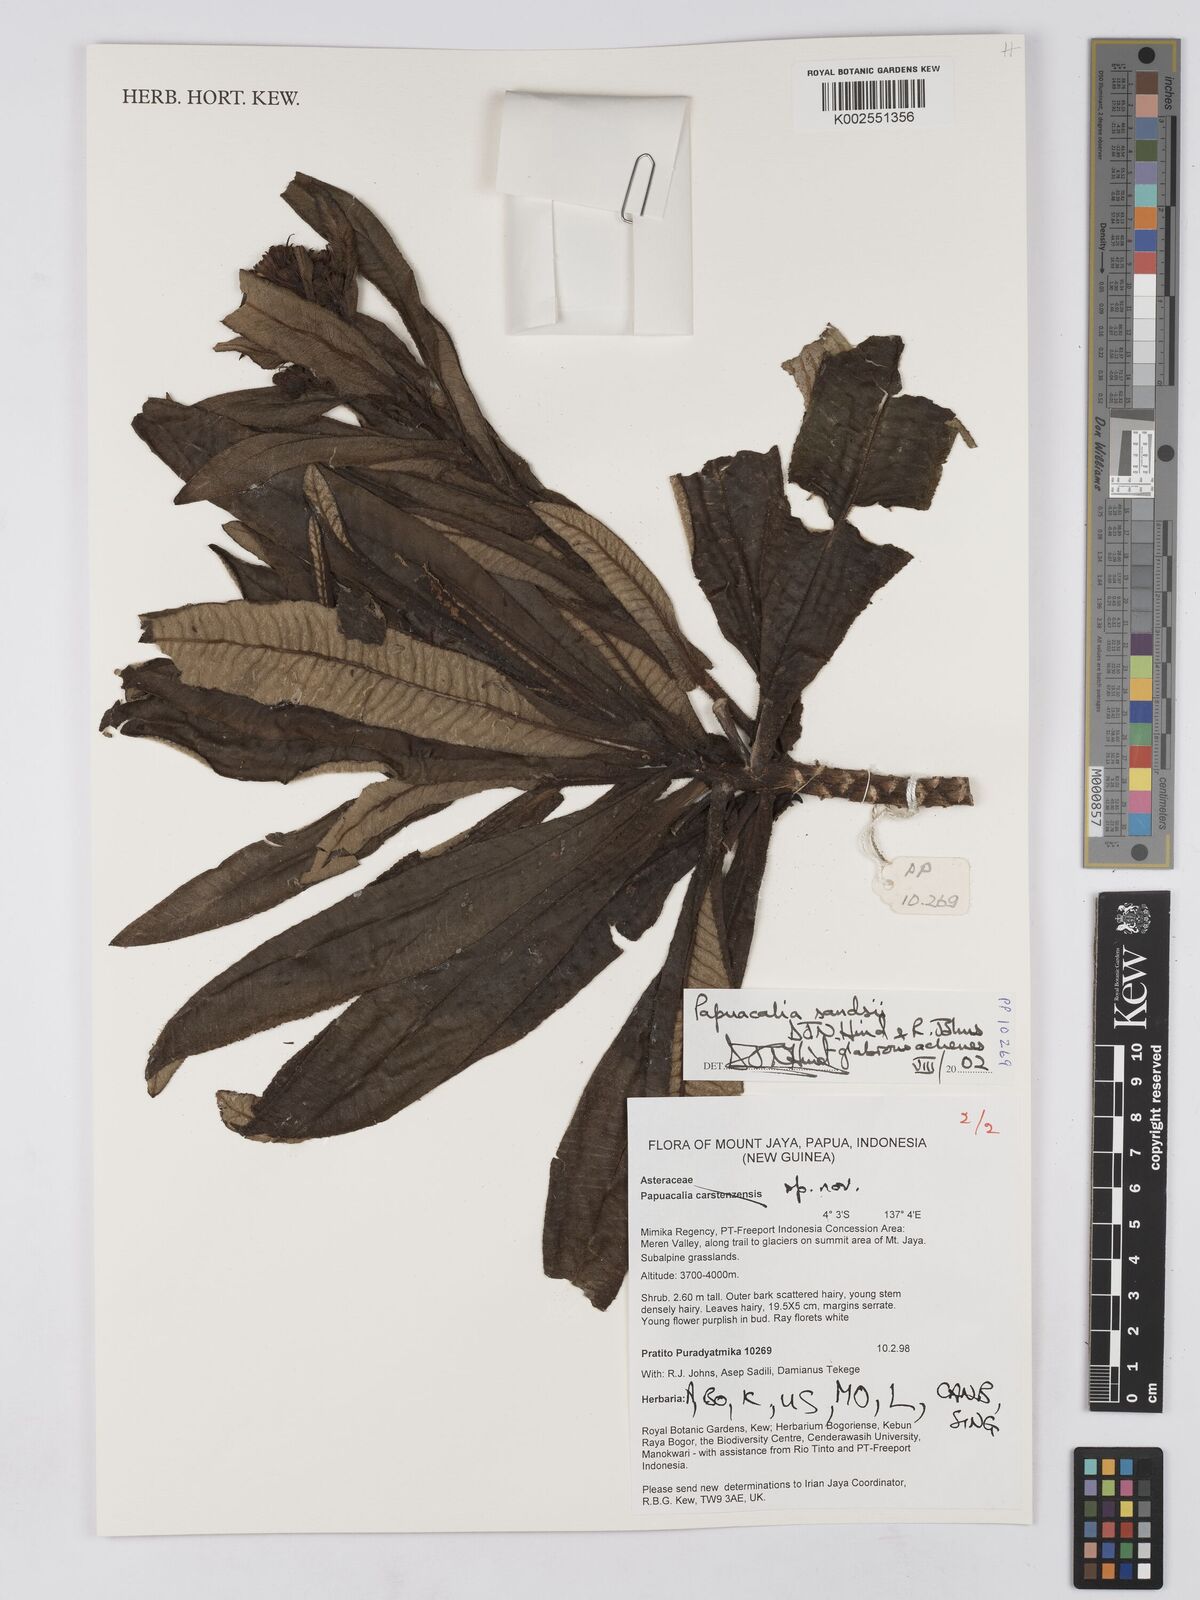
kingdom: Plantae
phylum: Tracheophyta
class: Magnoliopsida
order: Asterales
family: Asteraceae
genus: Papuacalia
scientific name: Papuacalia sandsii
